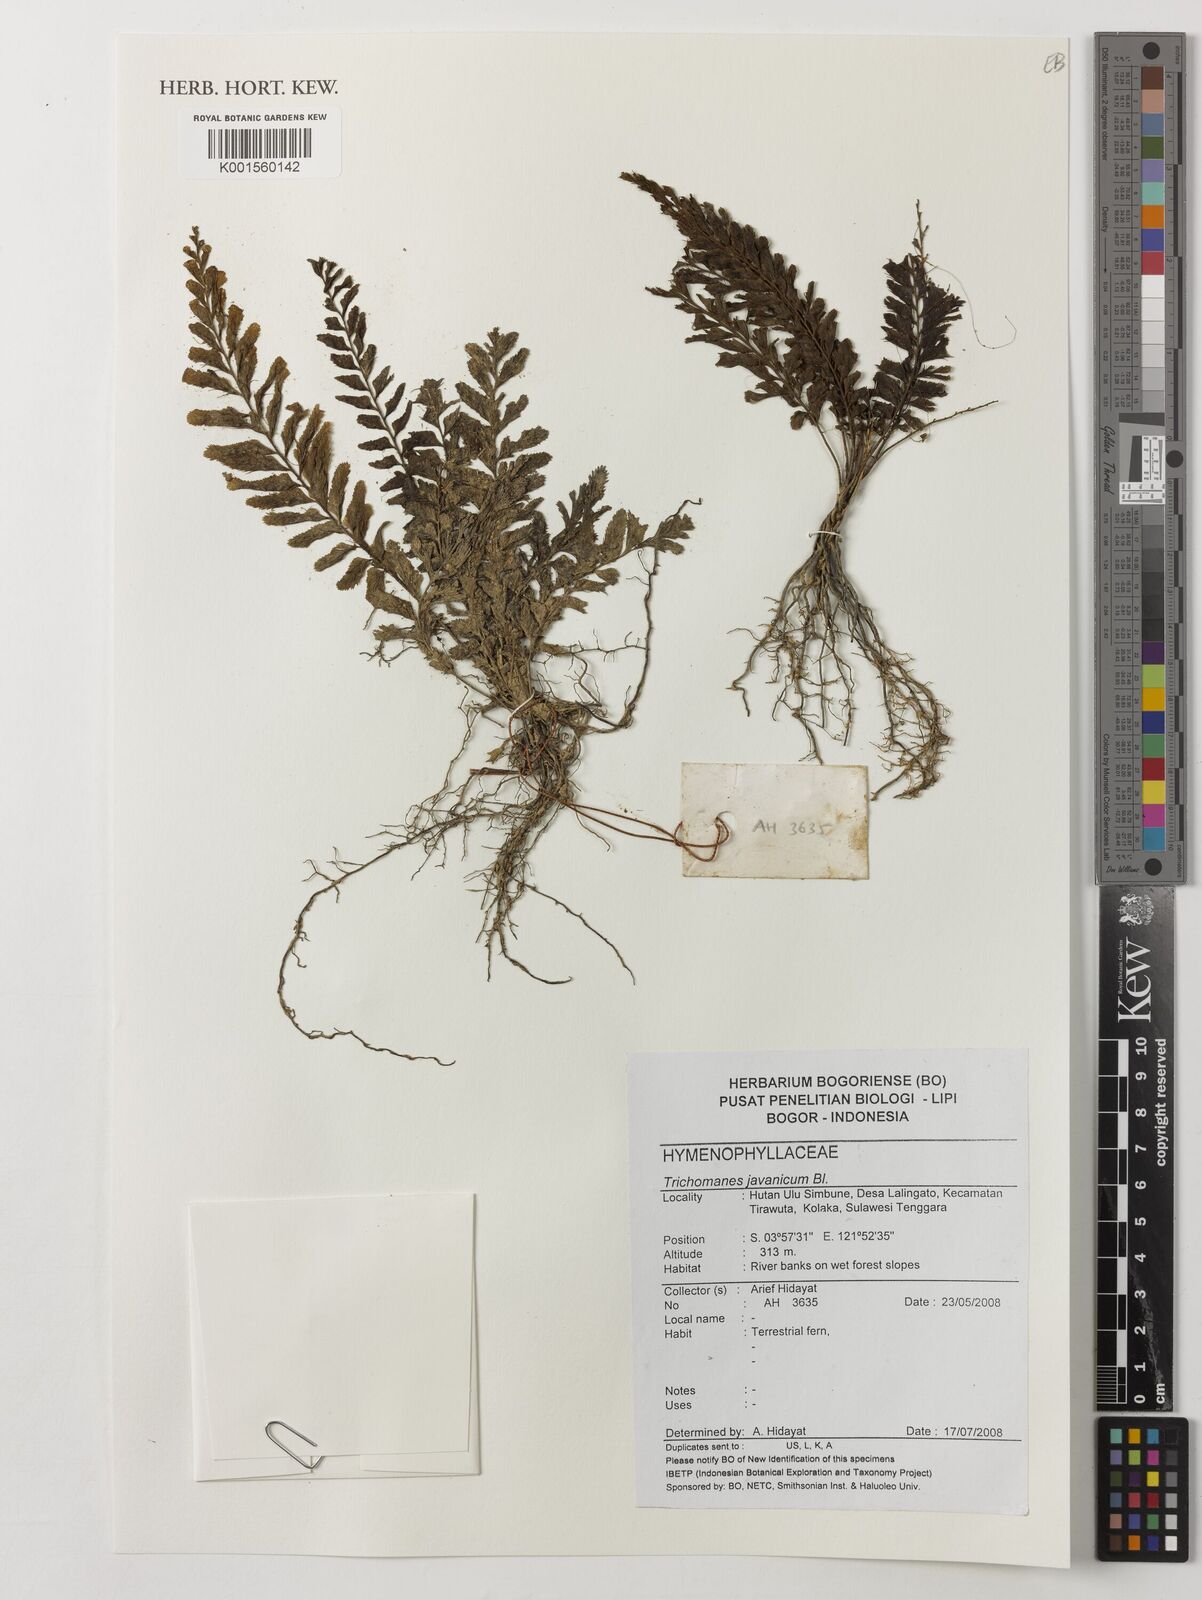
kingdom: Plantae
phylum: Tracheophyta
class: Polypodiopsida
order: Hymenophyllales
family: Hymenophyllaceae
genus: Cephalomanes
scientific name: Cephalomanes javanicum
